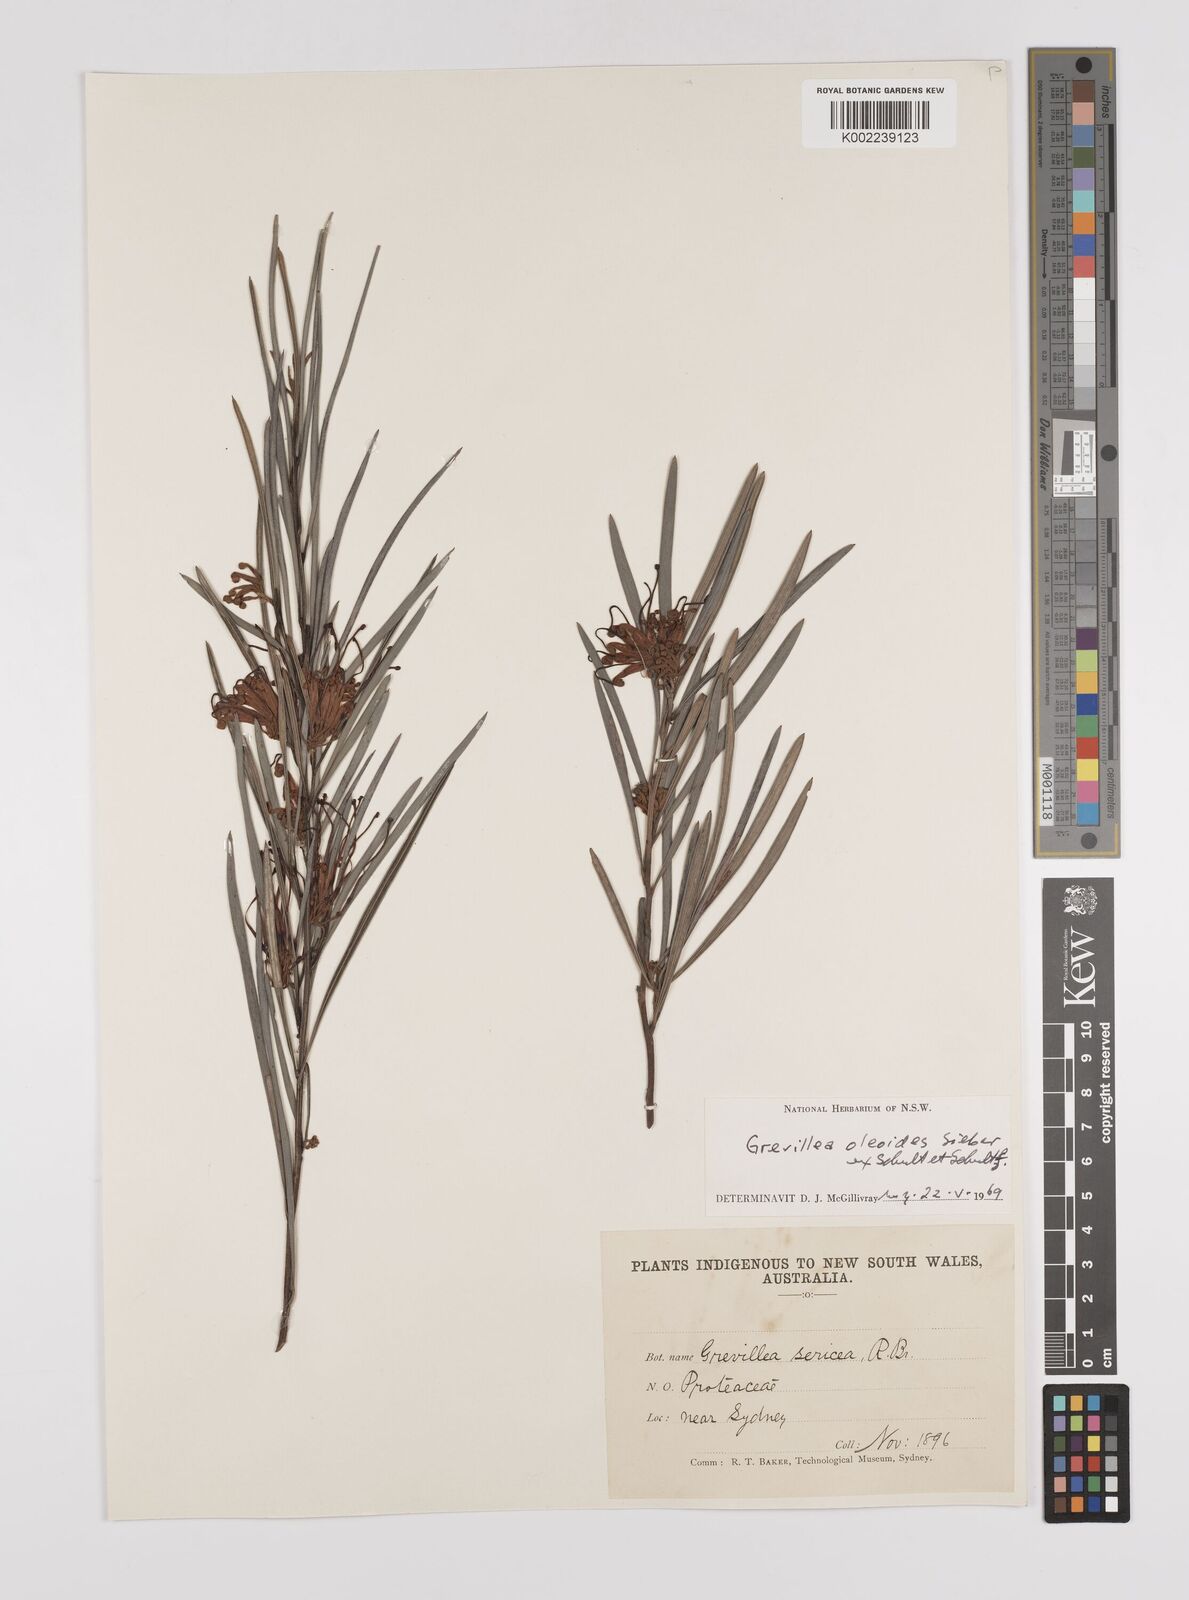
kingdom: Plantae
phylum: Tracheophyta
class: Magnoliopsida
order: Proteales
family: Proteaceae
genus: Grevillea
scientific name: Grevillea oleoides
